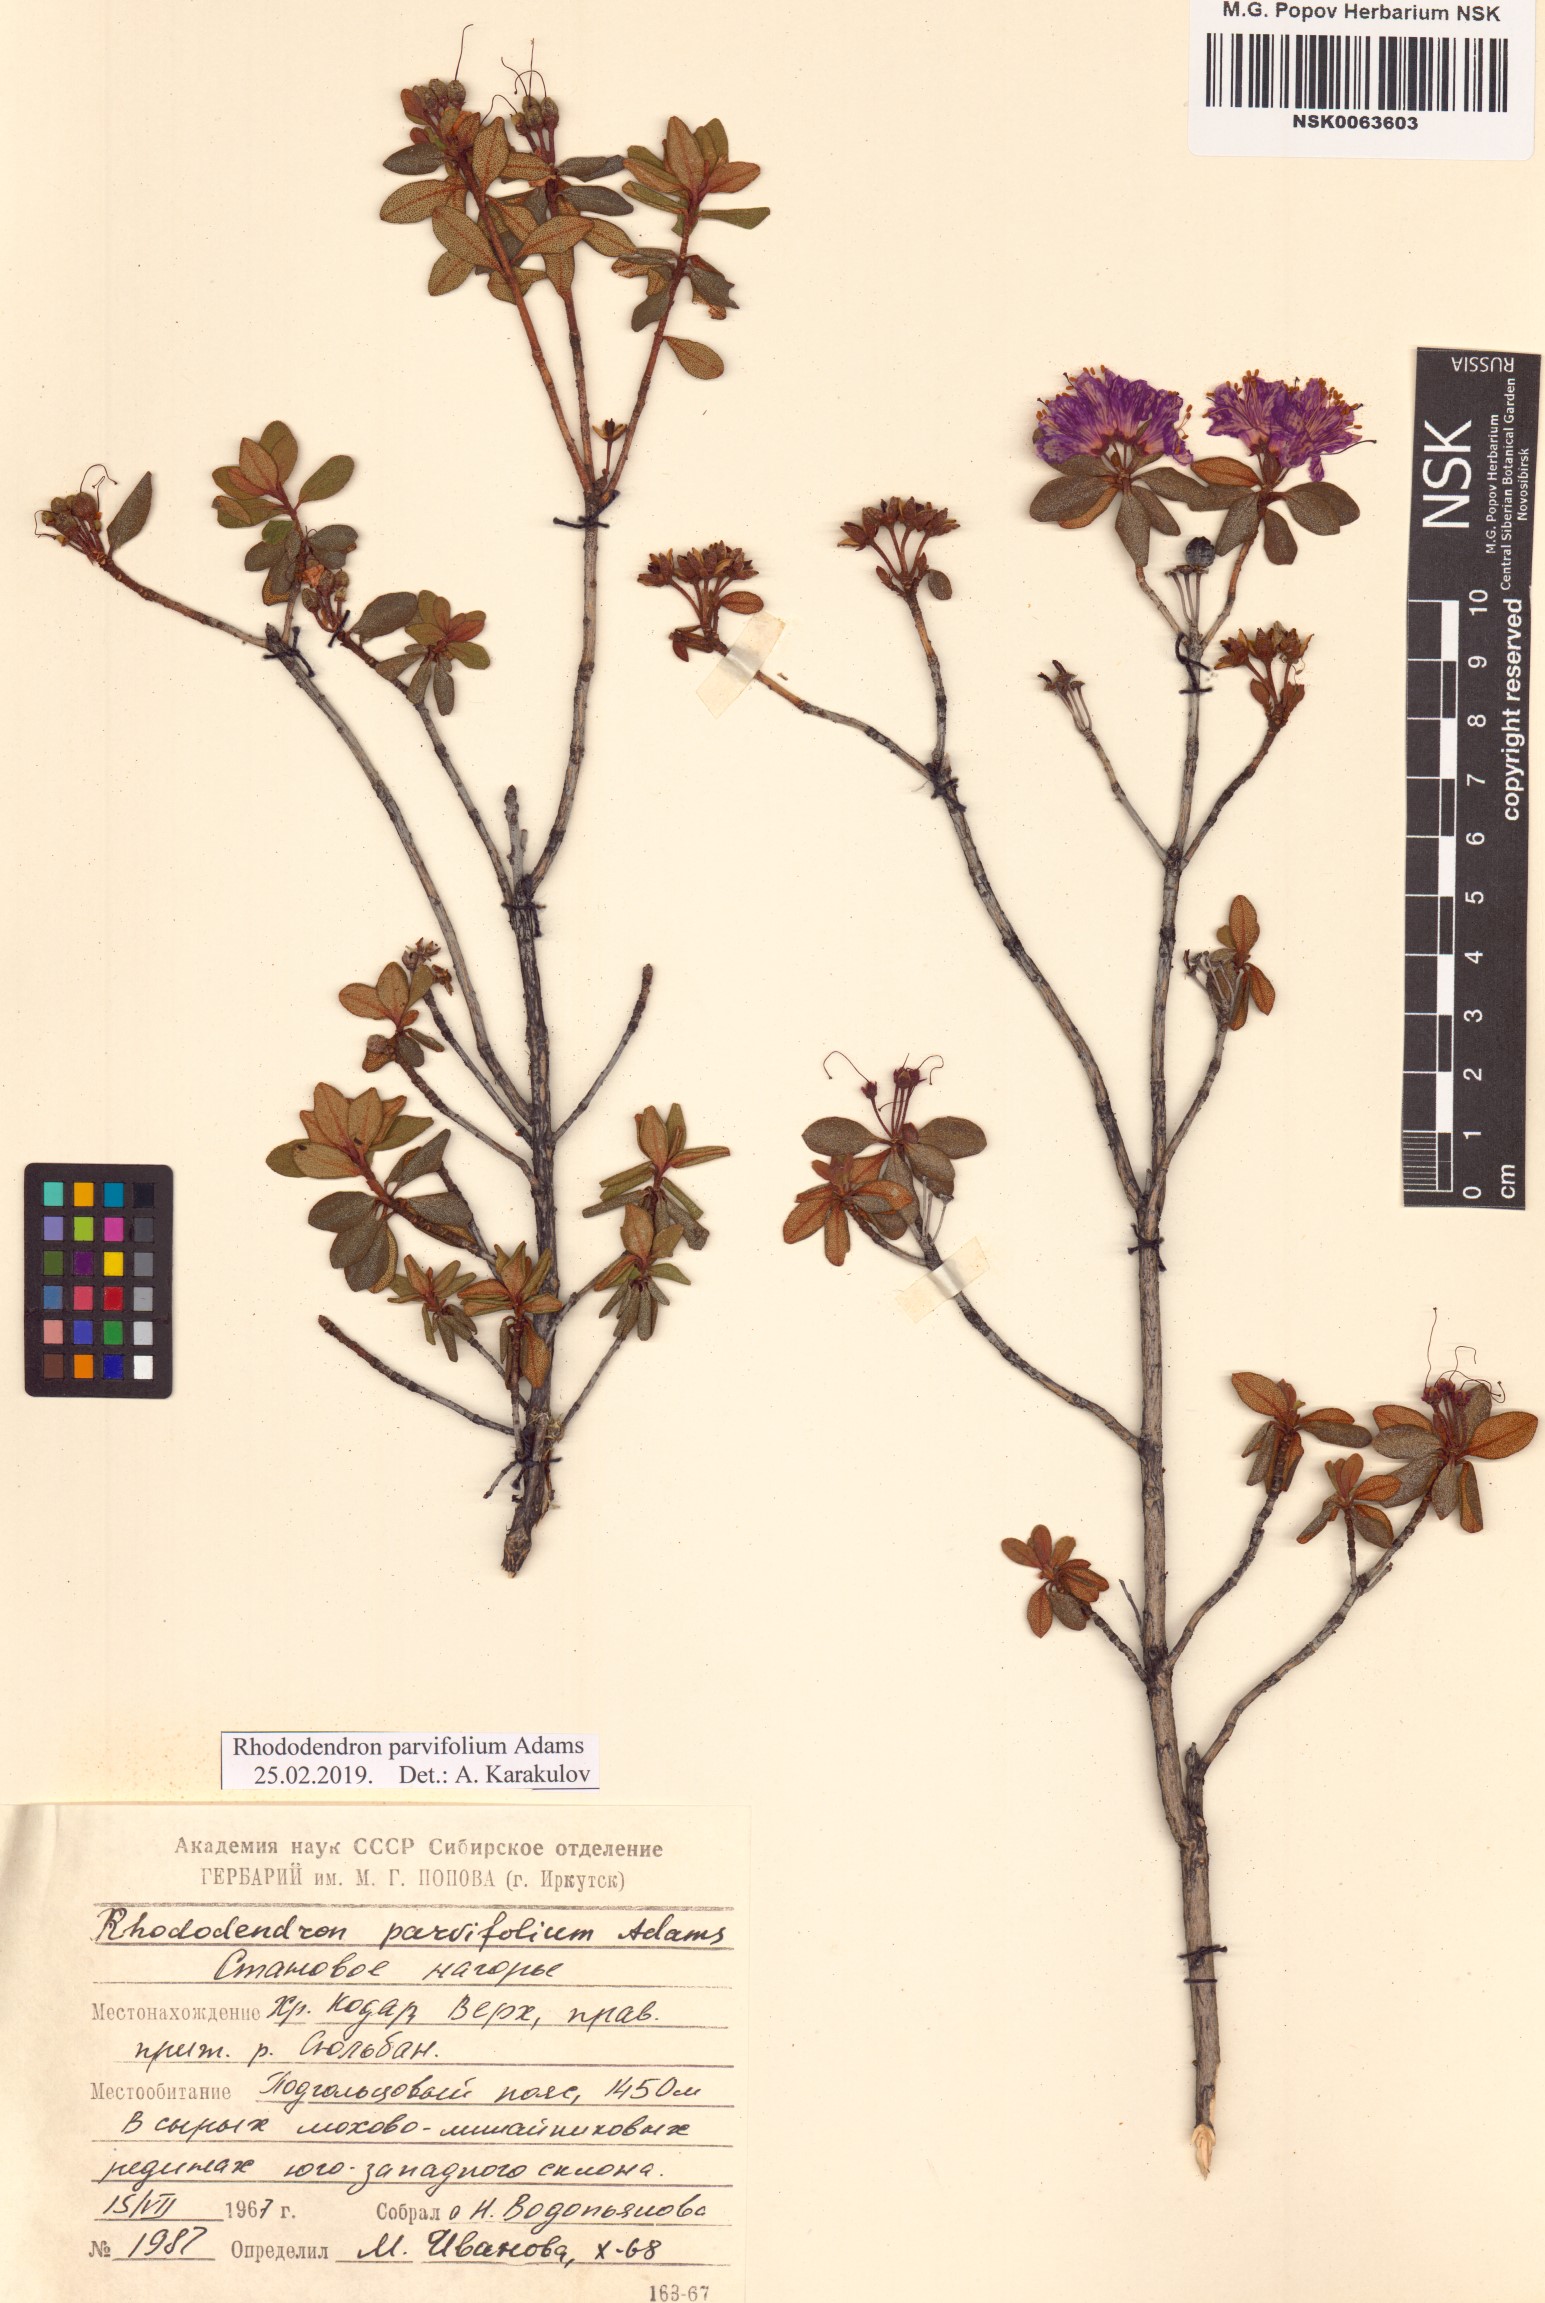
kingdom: Plantae
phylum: Tracheophyta
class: Magnoliopsida
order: Ericales
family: Ericaceae
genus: Rhododendron
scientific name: Rhododendron parvifolium
